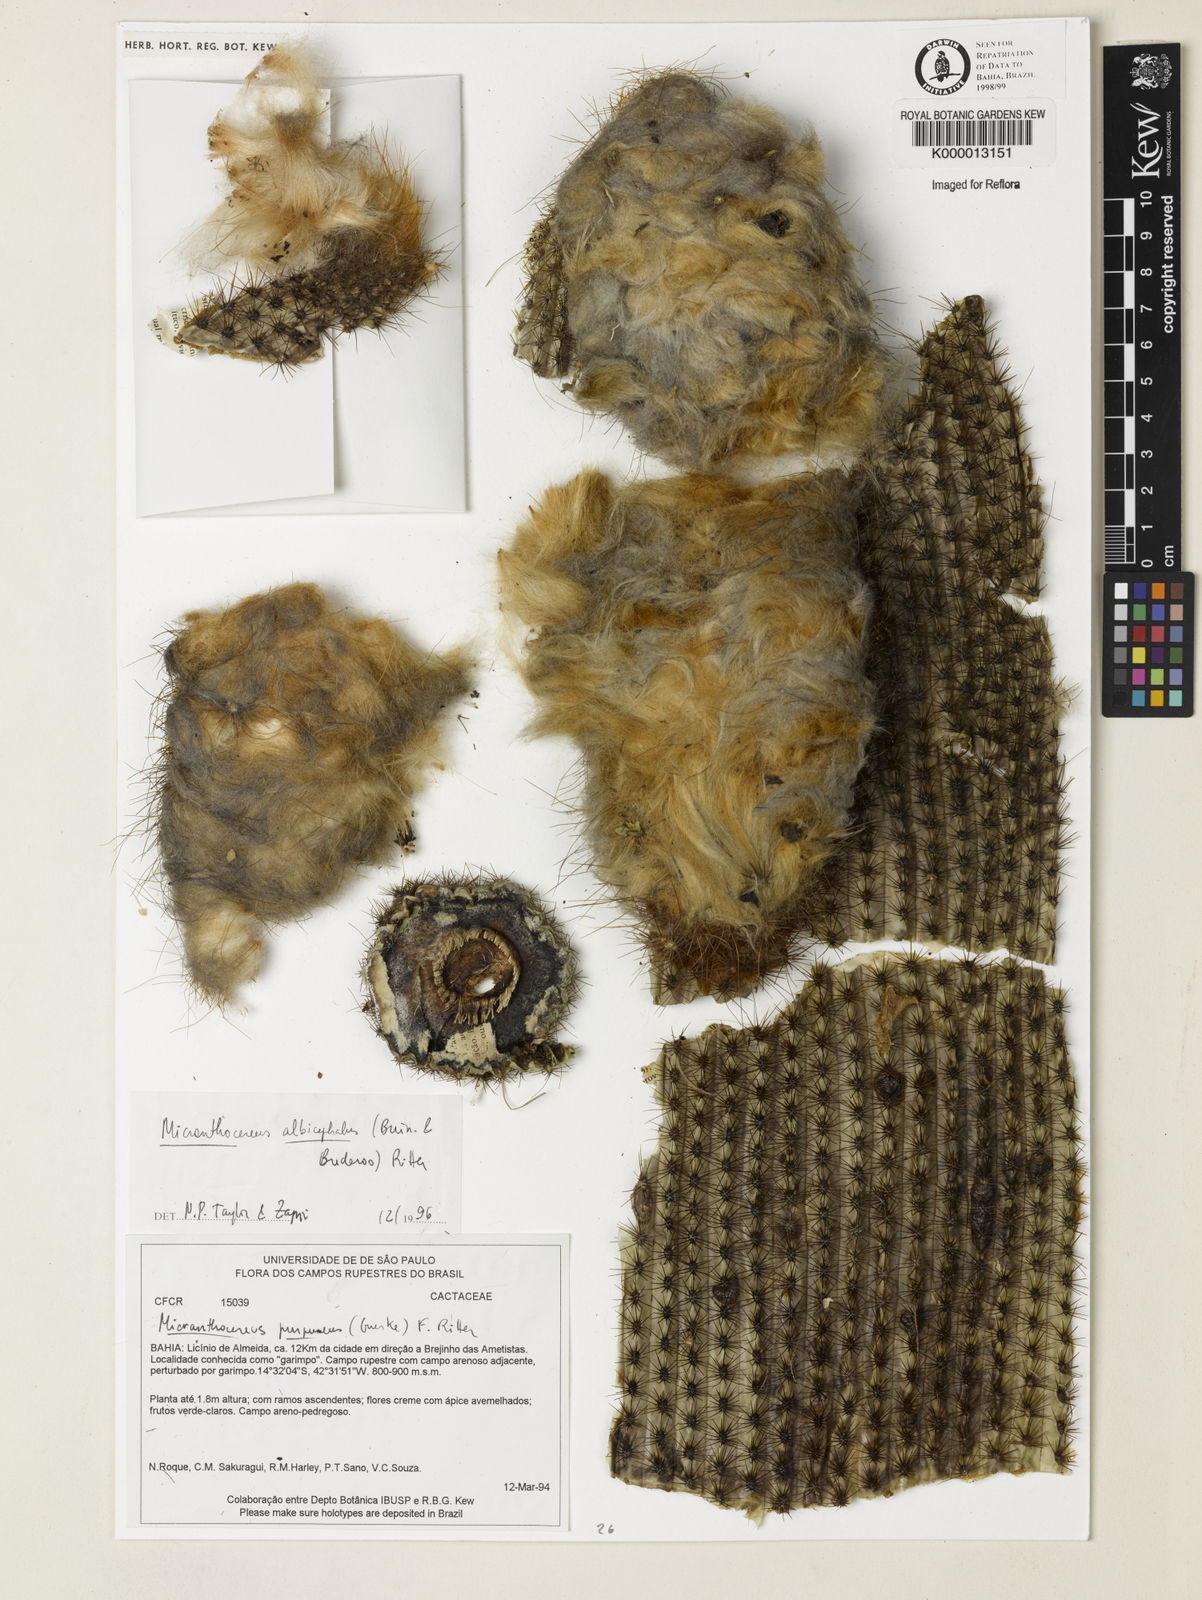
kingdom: Plantae
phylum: Tracheophyta
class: Magnoliopsida
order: Caryophyllales
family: Cactaceae
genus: Micranthocereus
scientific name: Micranthocereus albicephalus
